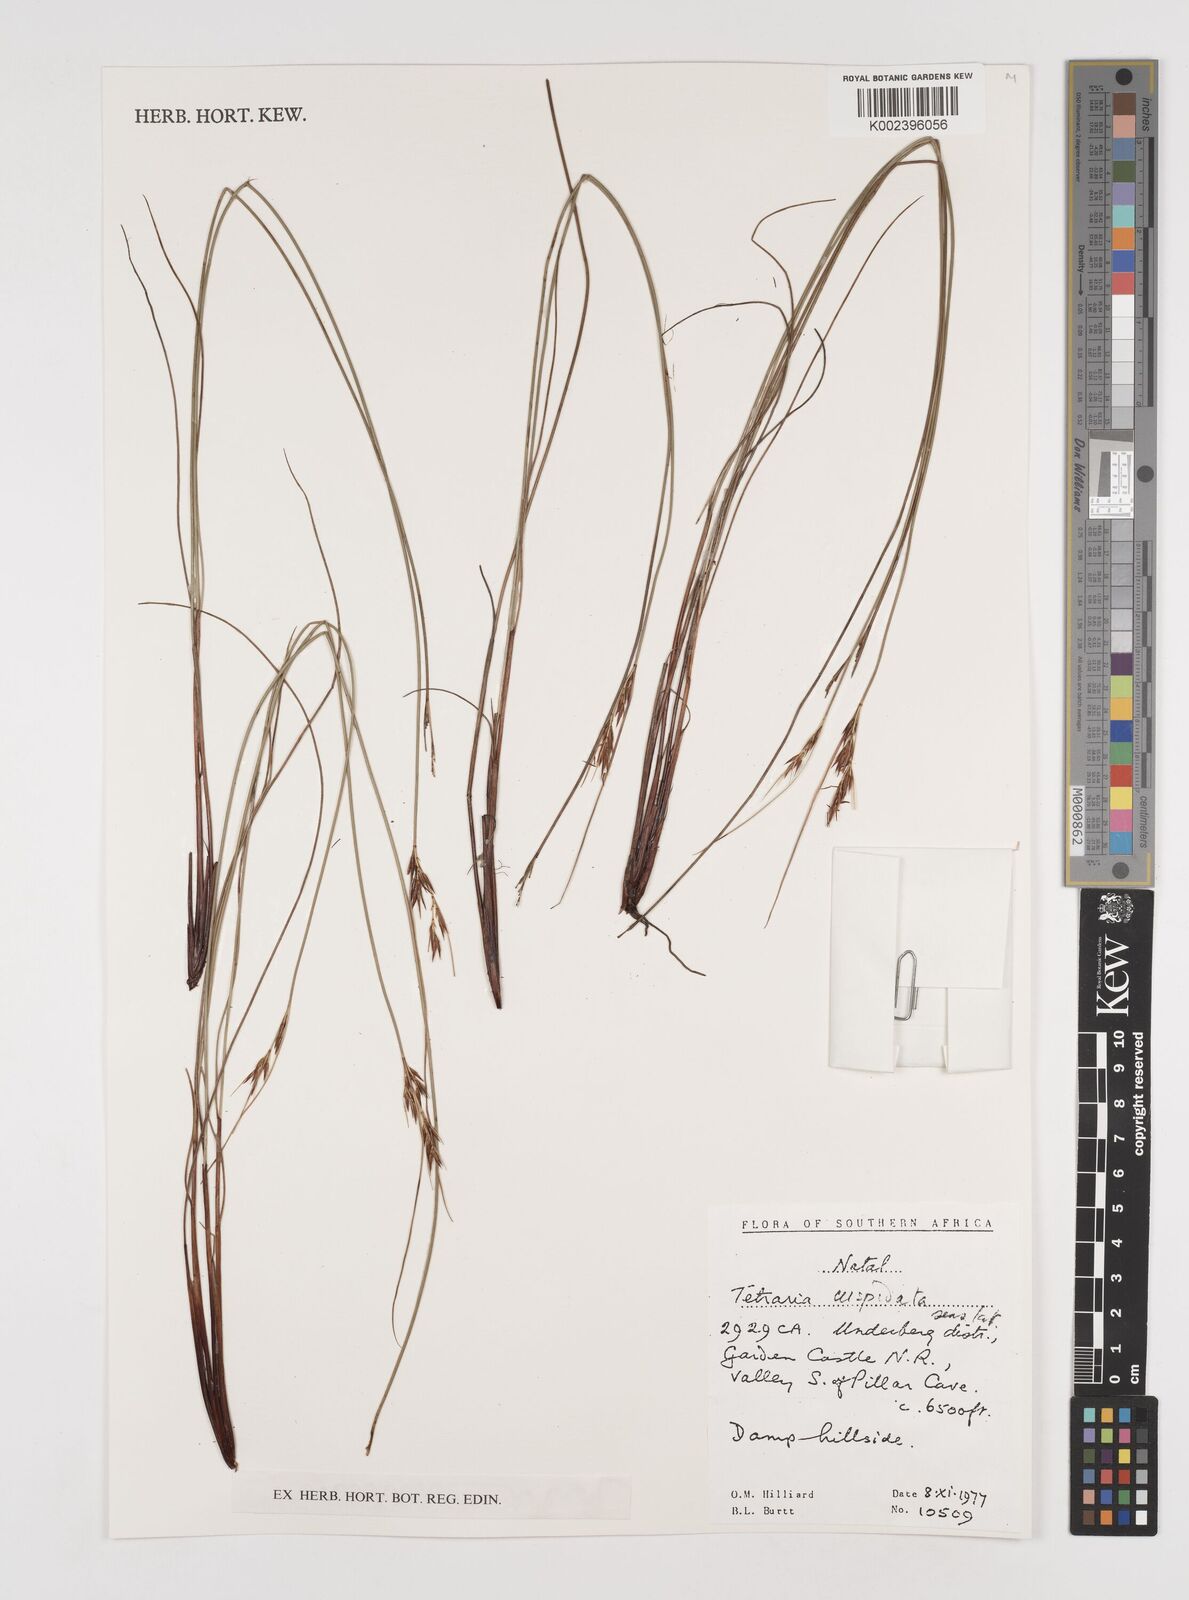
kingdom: Plantae
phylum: Tracheophyta
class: Liliopsida
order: Poales
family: Cyperaceae
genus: Schoenus
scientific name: Schoenus cuspidatus
